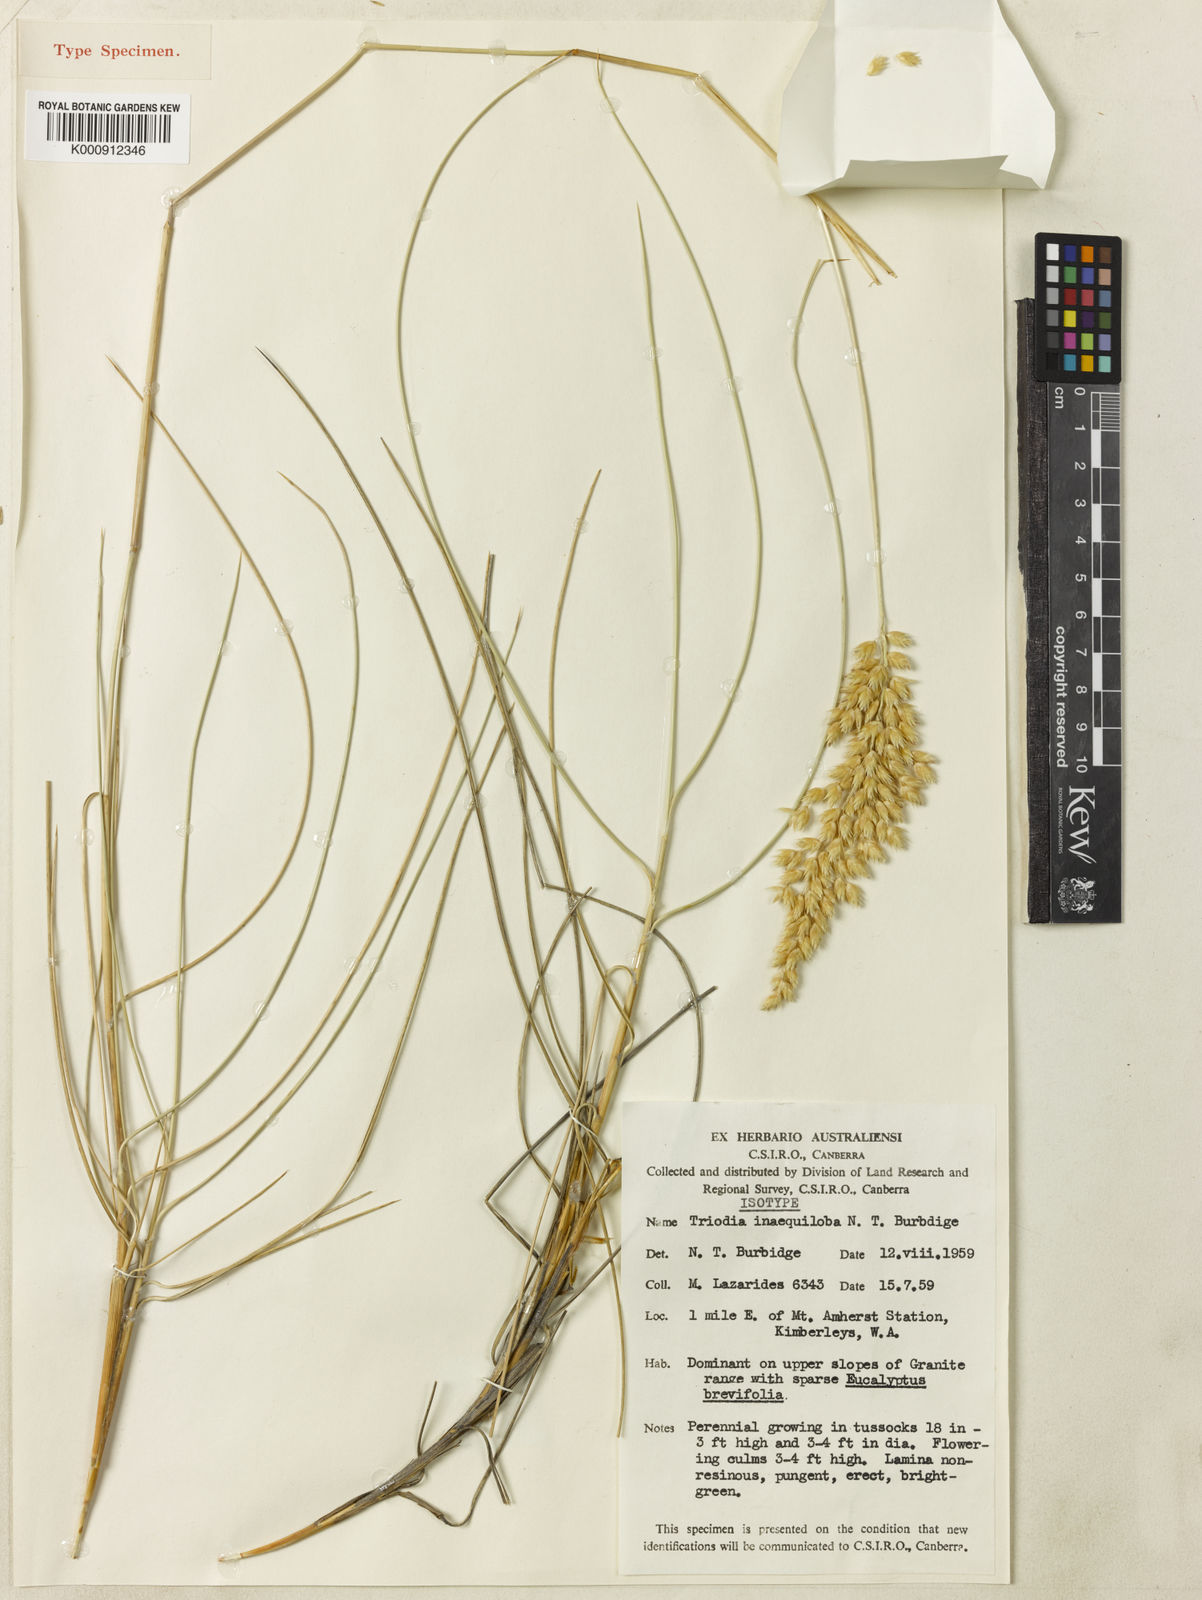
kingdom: Plantae
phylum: Tracheophyta
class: Liliopsida
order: Poales
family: Poaceae
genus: Triodia
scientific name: Triodia inaequiloba
